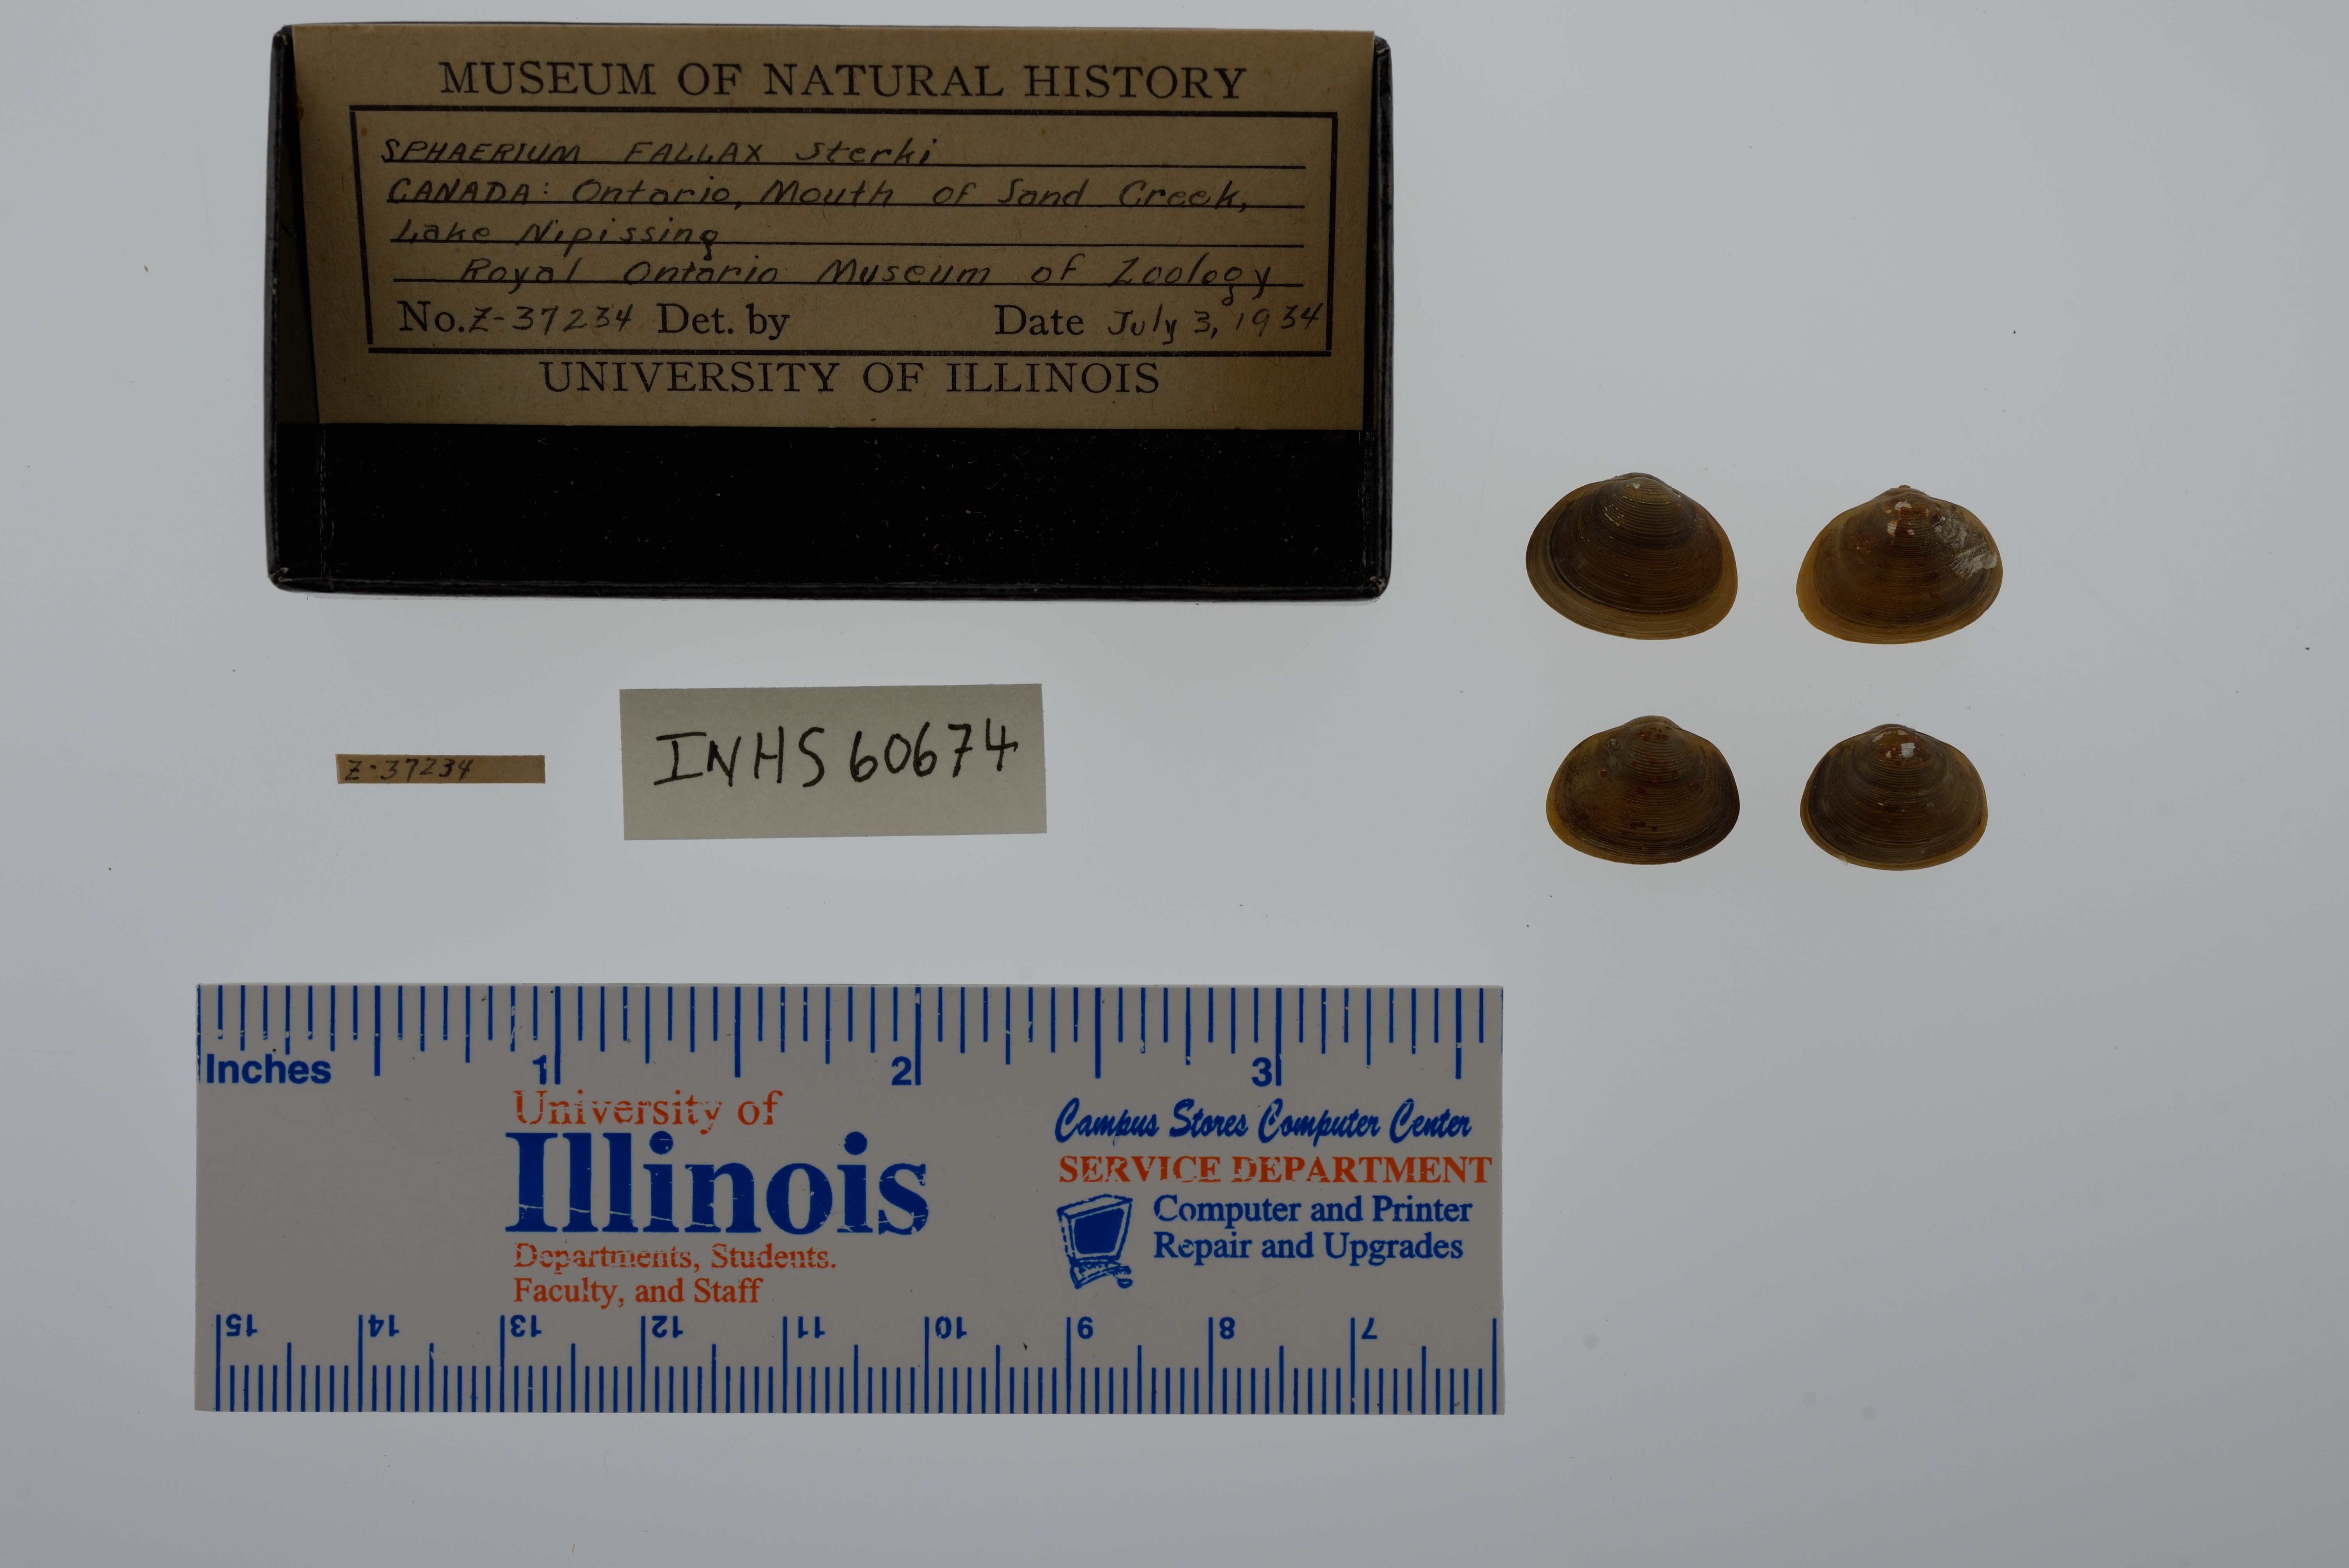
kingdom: Animalia
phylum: Mollusca
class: Bivalvia
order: Sphaeriida
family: Sphaeriidae
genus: Sphaerium
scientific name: Sphaerium simile
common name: Grooved fingernailclam
